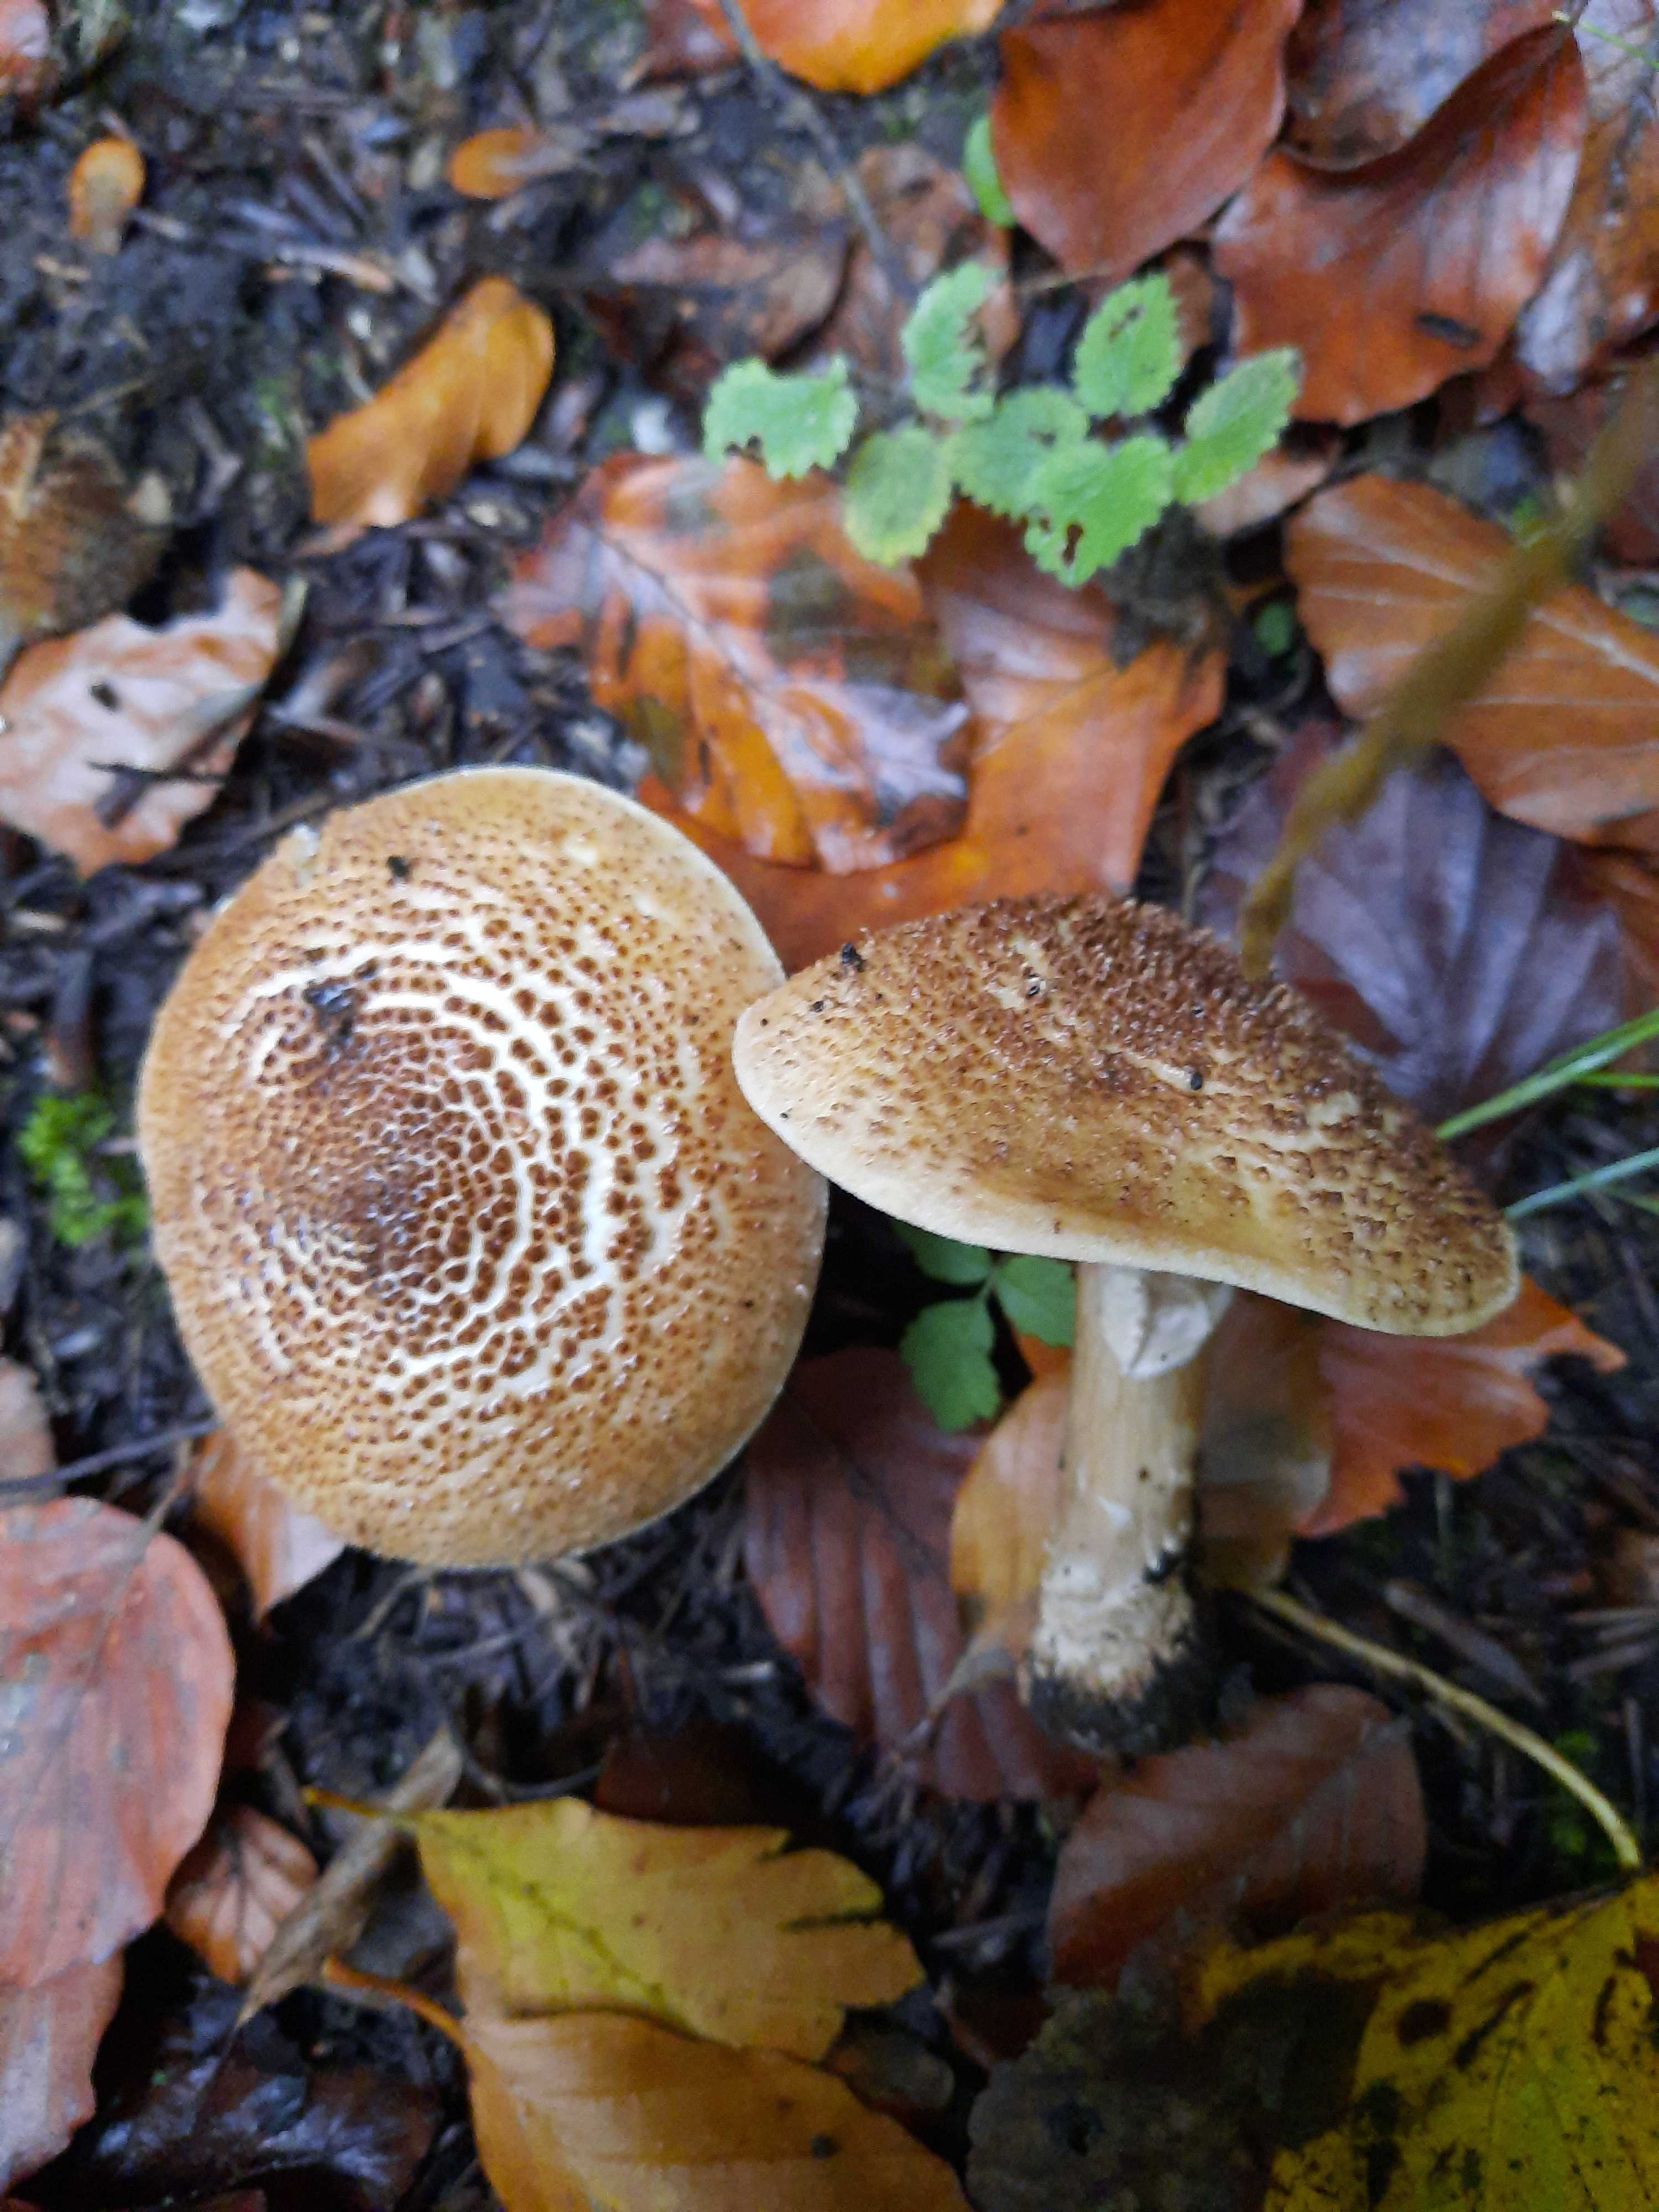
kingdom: Fungi
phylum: Basidiomycota
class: Agaricomycetes
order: Agaricales
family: Agaricaceae
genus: Echinoderma
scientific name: Echinoderma asperum
